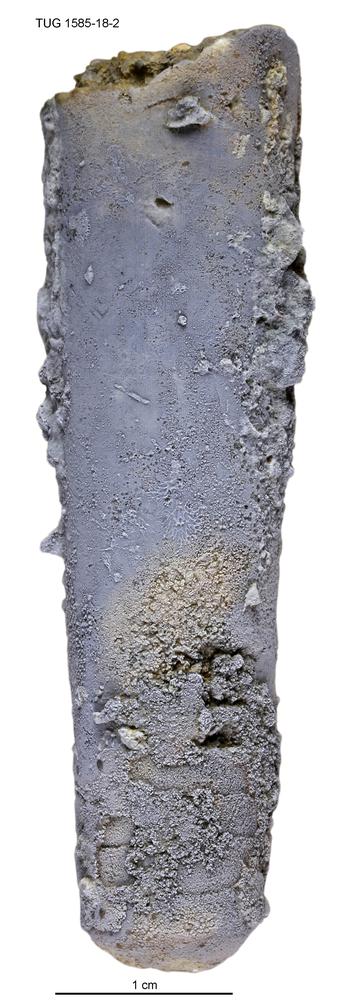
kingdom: Animalia
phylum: Mollusca
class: Cephalopoda
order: Orthocerida
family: Proteoceratidae
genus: Isorthoceras
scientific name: Isorthoceras padisense
